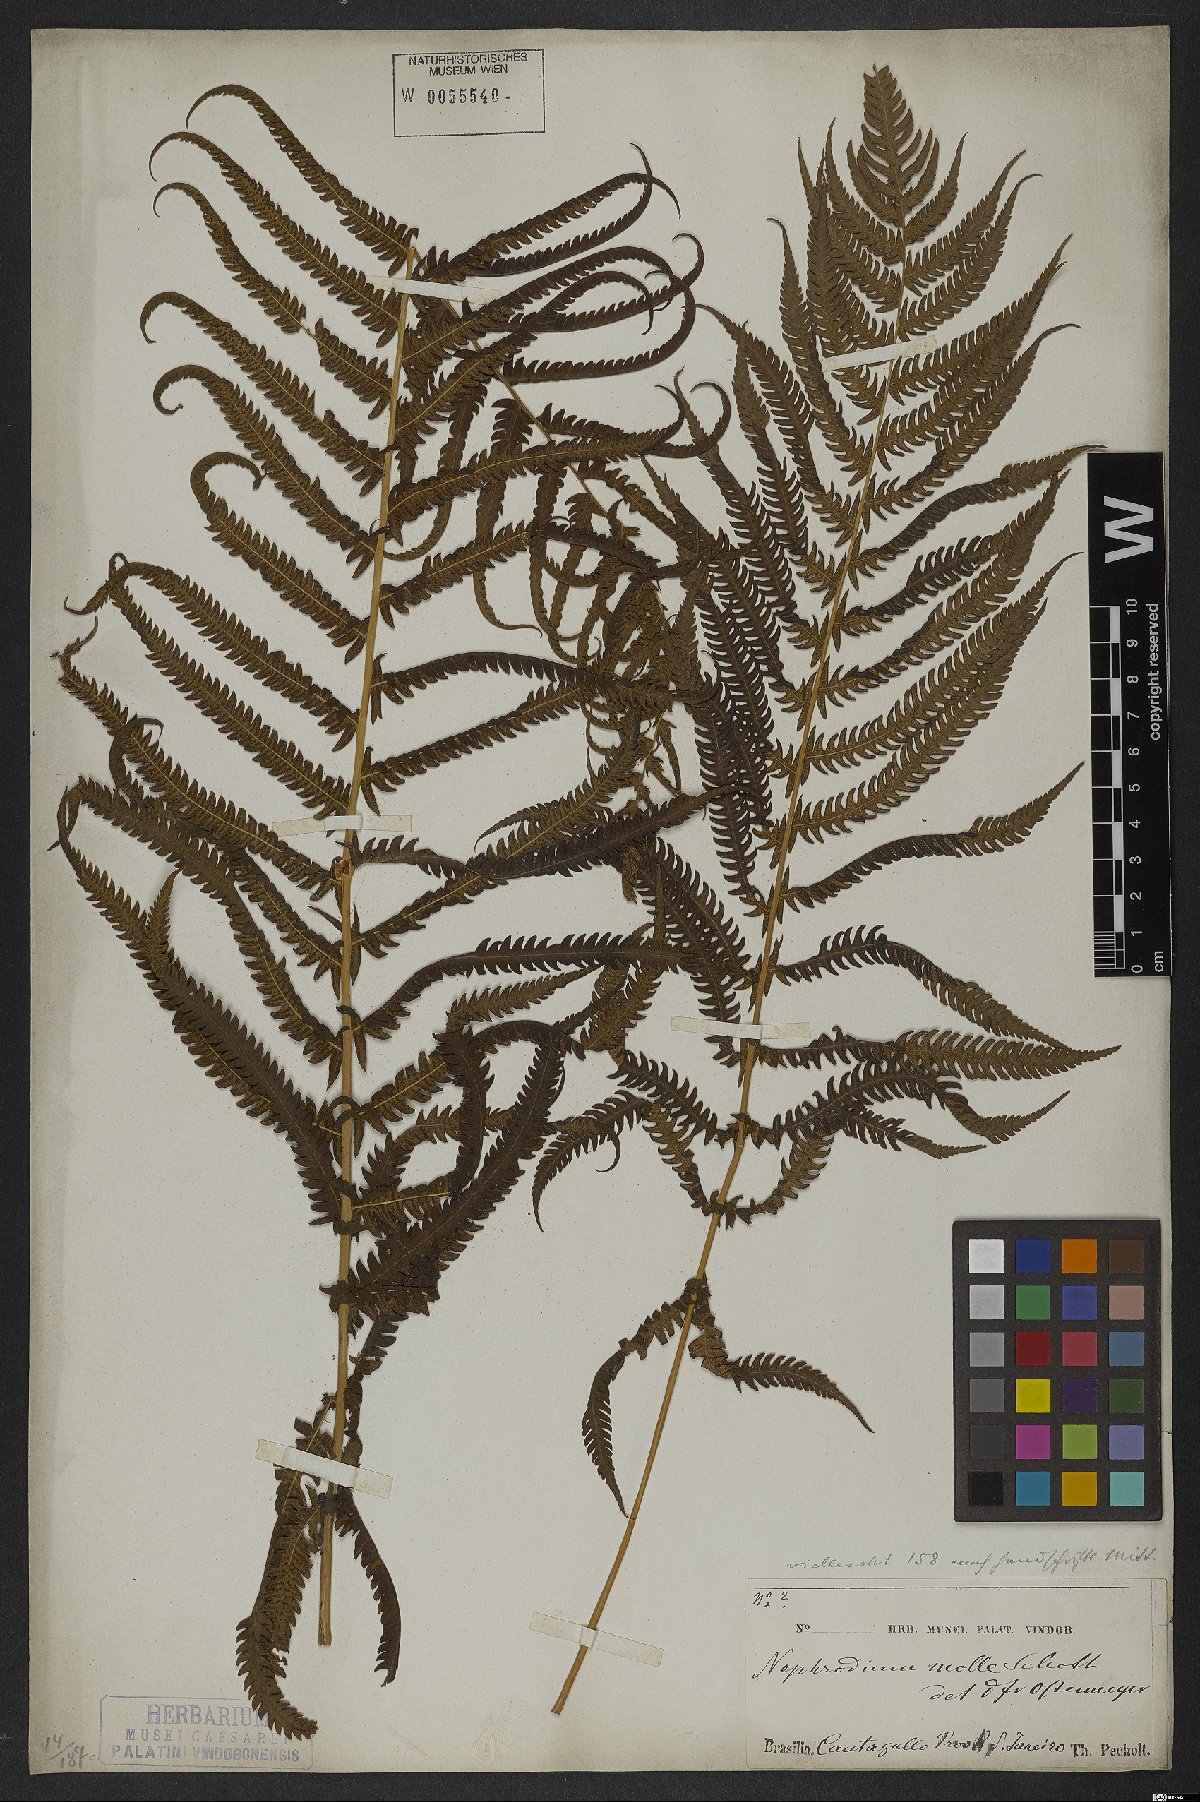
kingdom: Plantae
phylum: Tracheophyta
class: Polypodiopsida
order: Polypodiales
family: Thelypteridaceae
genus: Christella
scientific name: Christella parasitica
